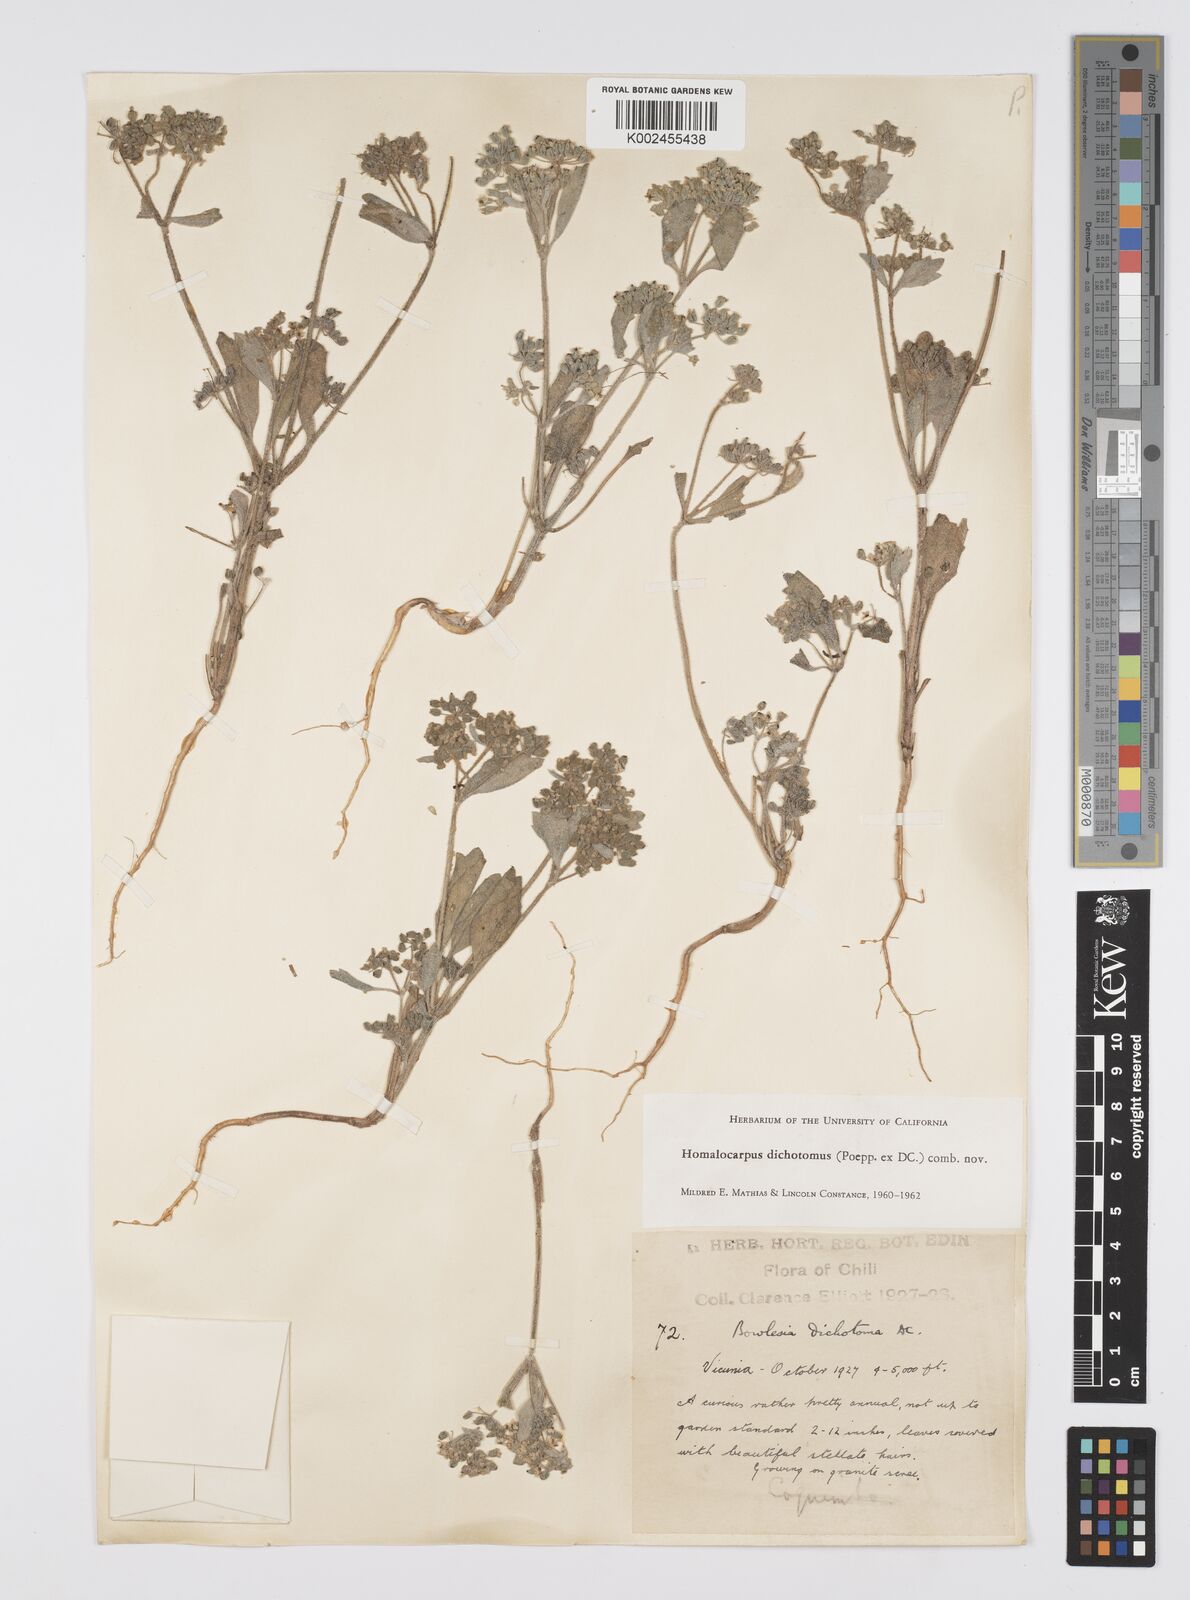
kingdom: Plantae
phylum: Tracheophyta
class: Magnoliopsida
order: Apiales
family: Apiaceae
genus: Homalocarpus
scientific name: Homalocarpus dichotomus
